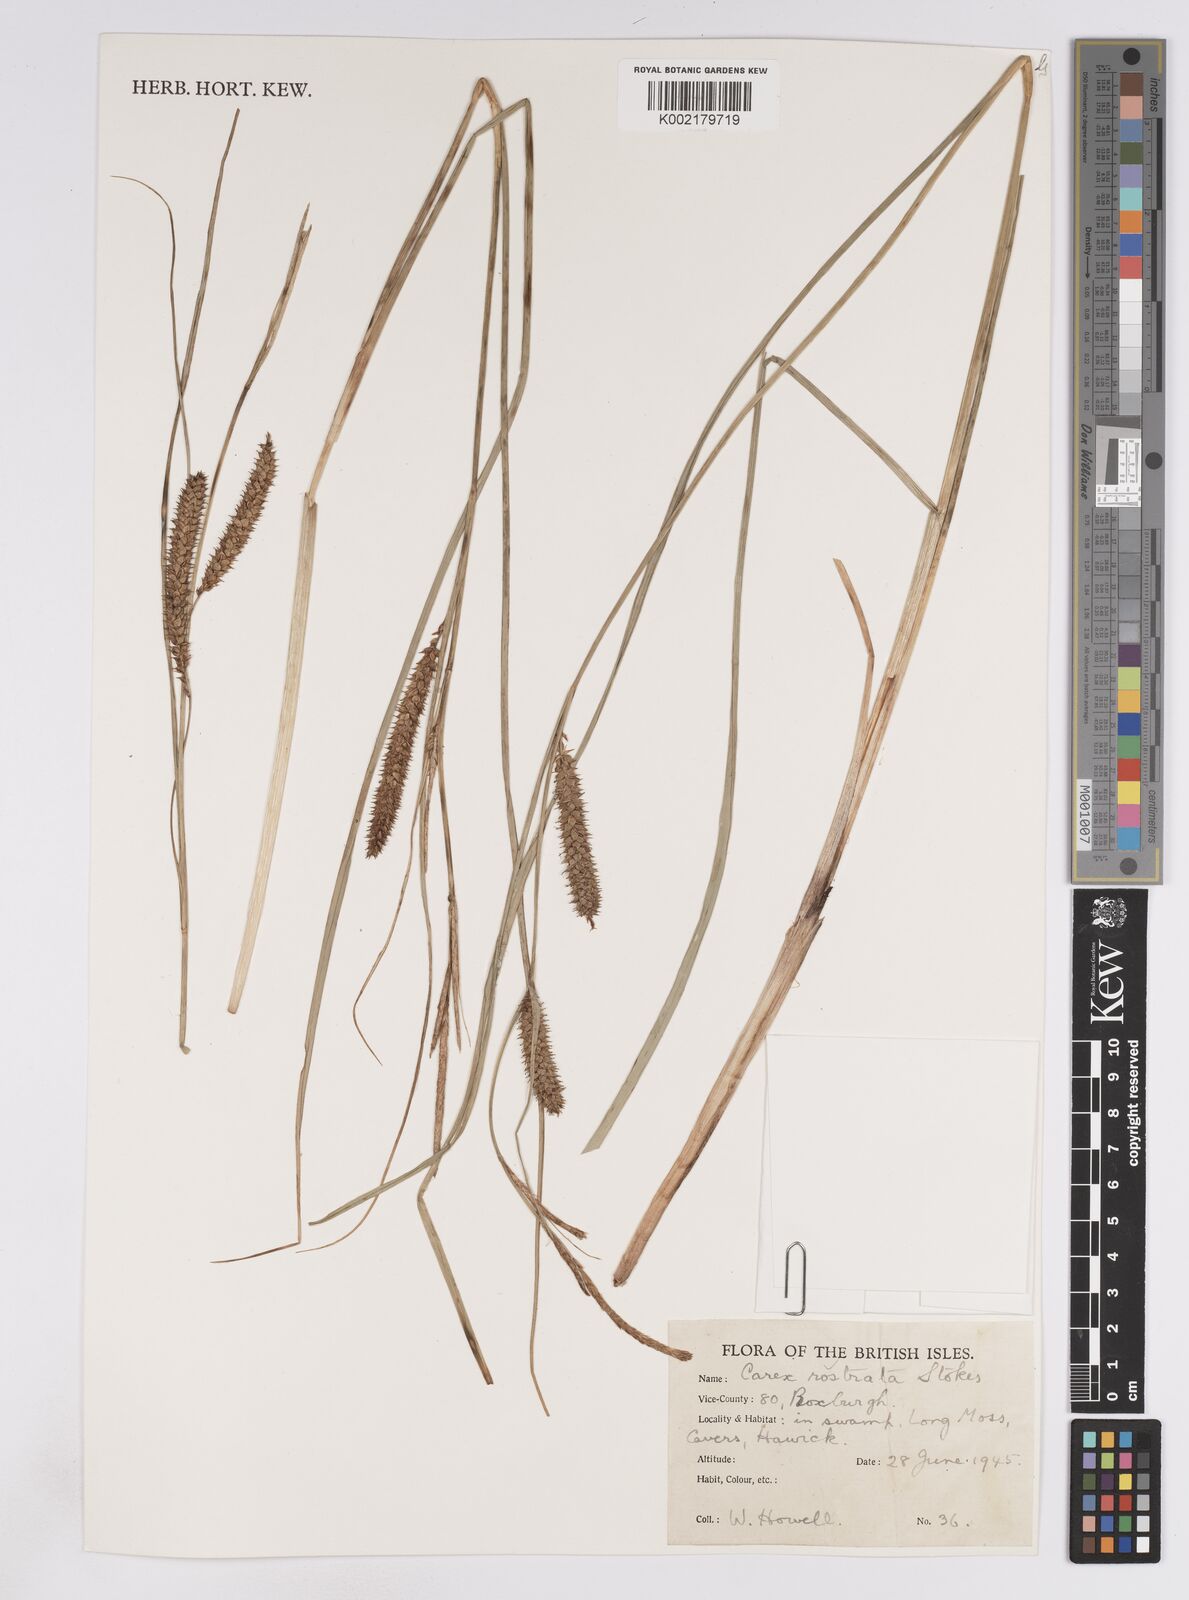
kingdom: Plantae
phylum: Tracheophyta
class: Liliopsida
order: Poales
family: Cyperaceae
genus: Carex
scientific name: Carex rostrata
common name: Bottle sedge
